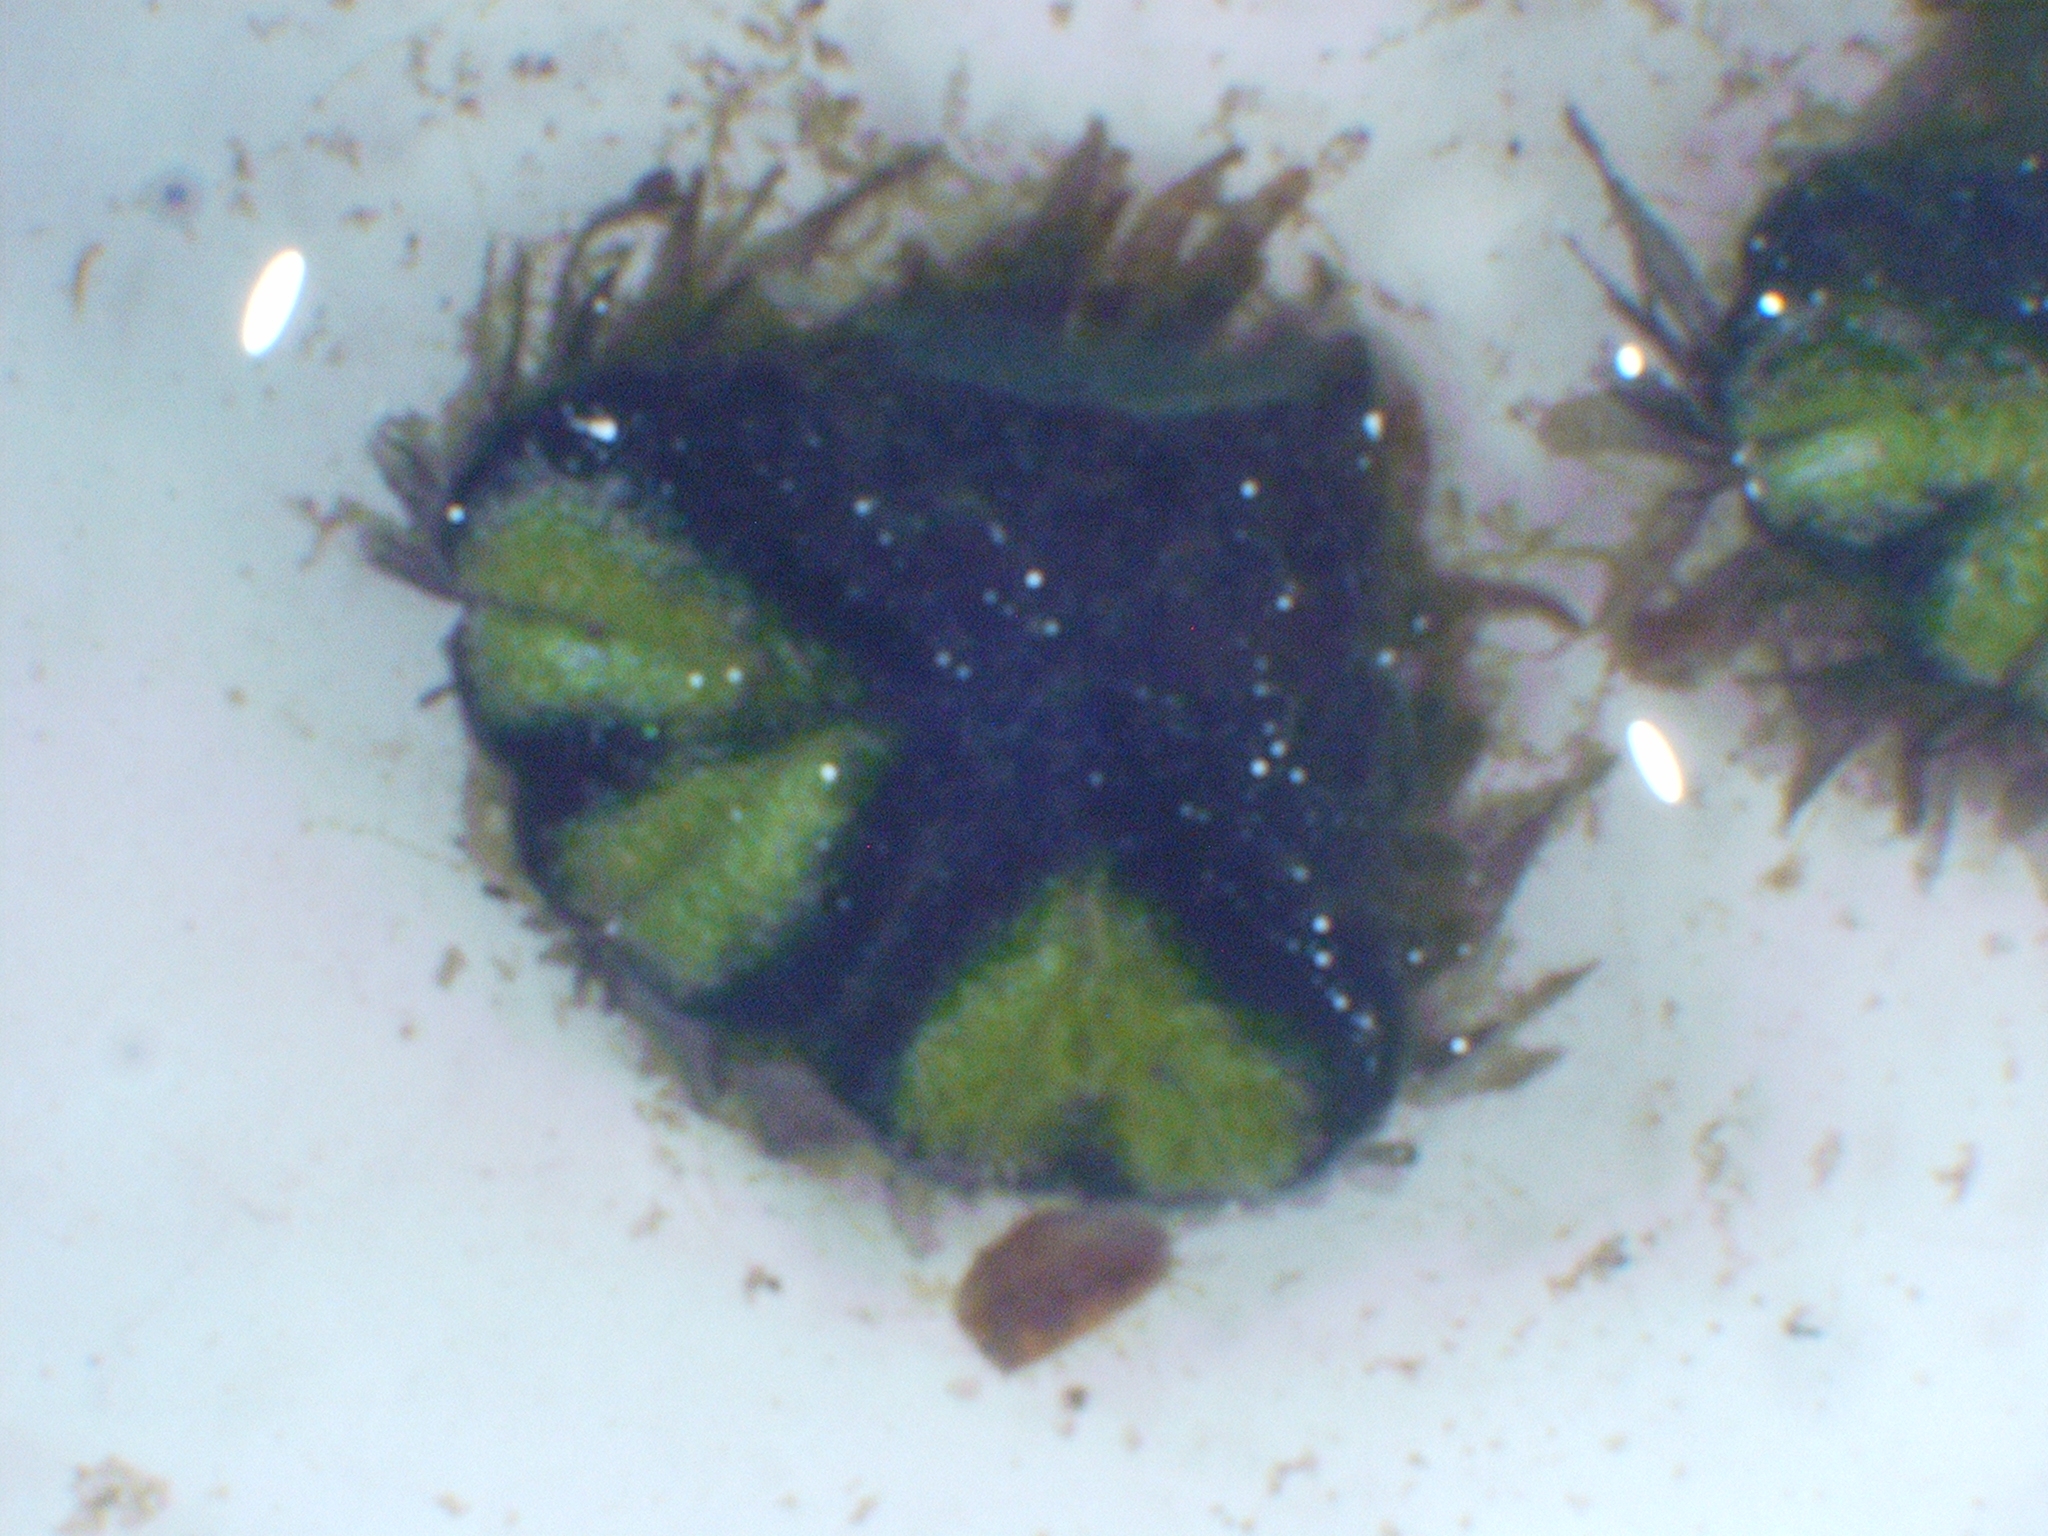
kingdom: Plantae
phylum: Marchantiophyta
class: Marchantiopsida
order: Marchantiales
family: Ricciaceae
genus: Ricciocarpos
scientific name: Ricciocarpos natans
